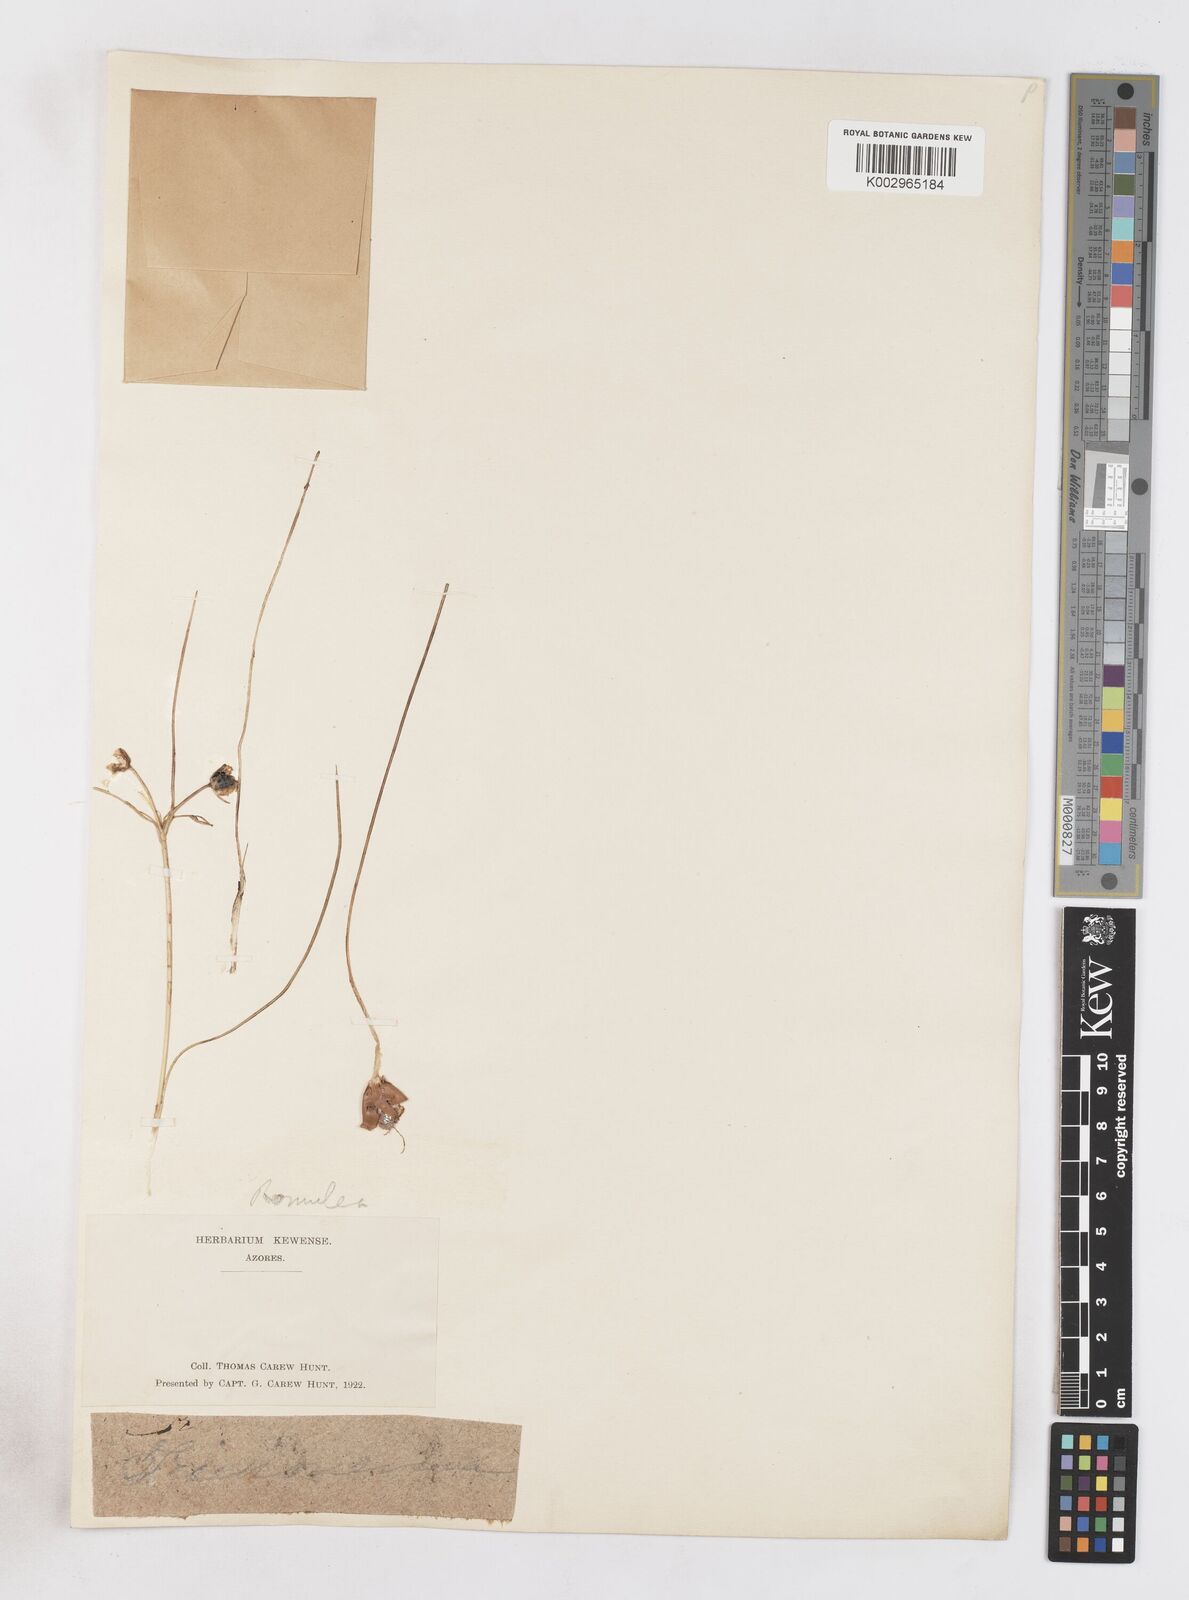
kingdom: Plantae
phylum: Tracheophyta
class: Liliopsida
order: Asparagales
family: Iridaceae
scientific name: Iridaceae
